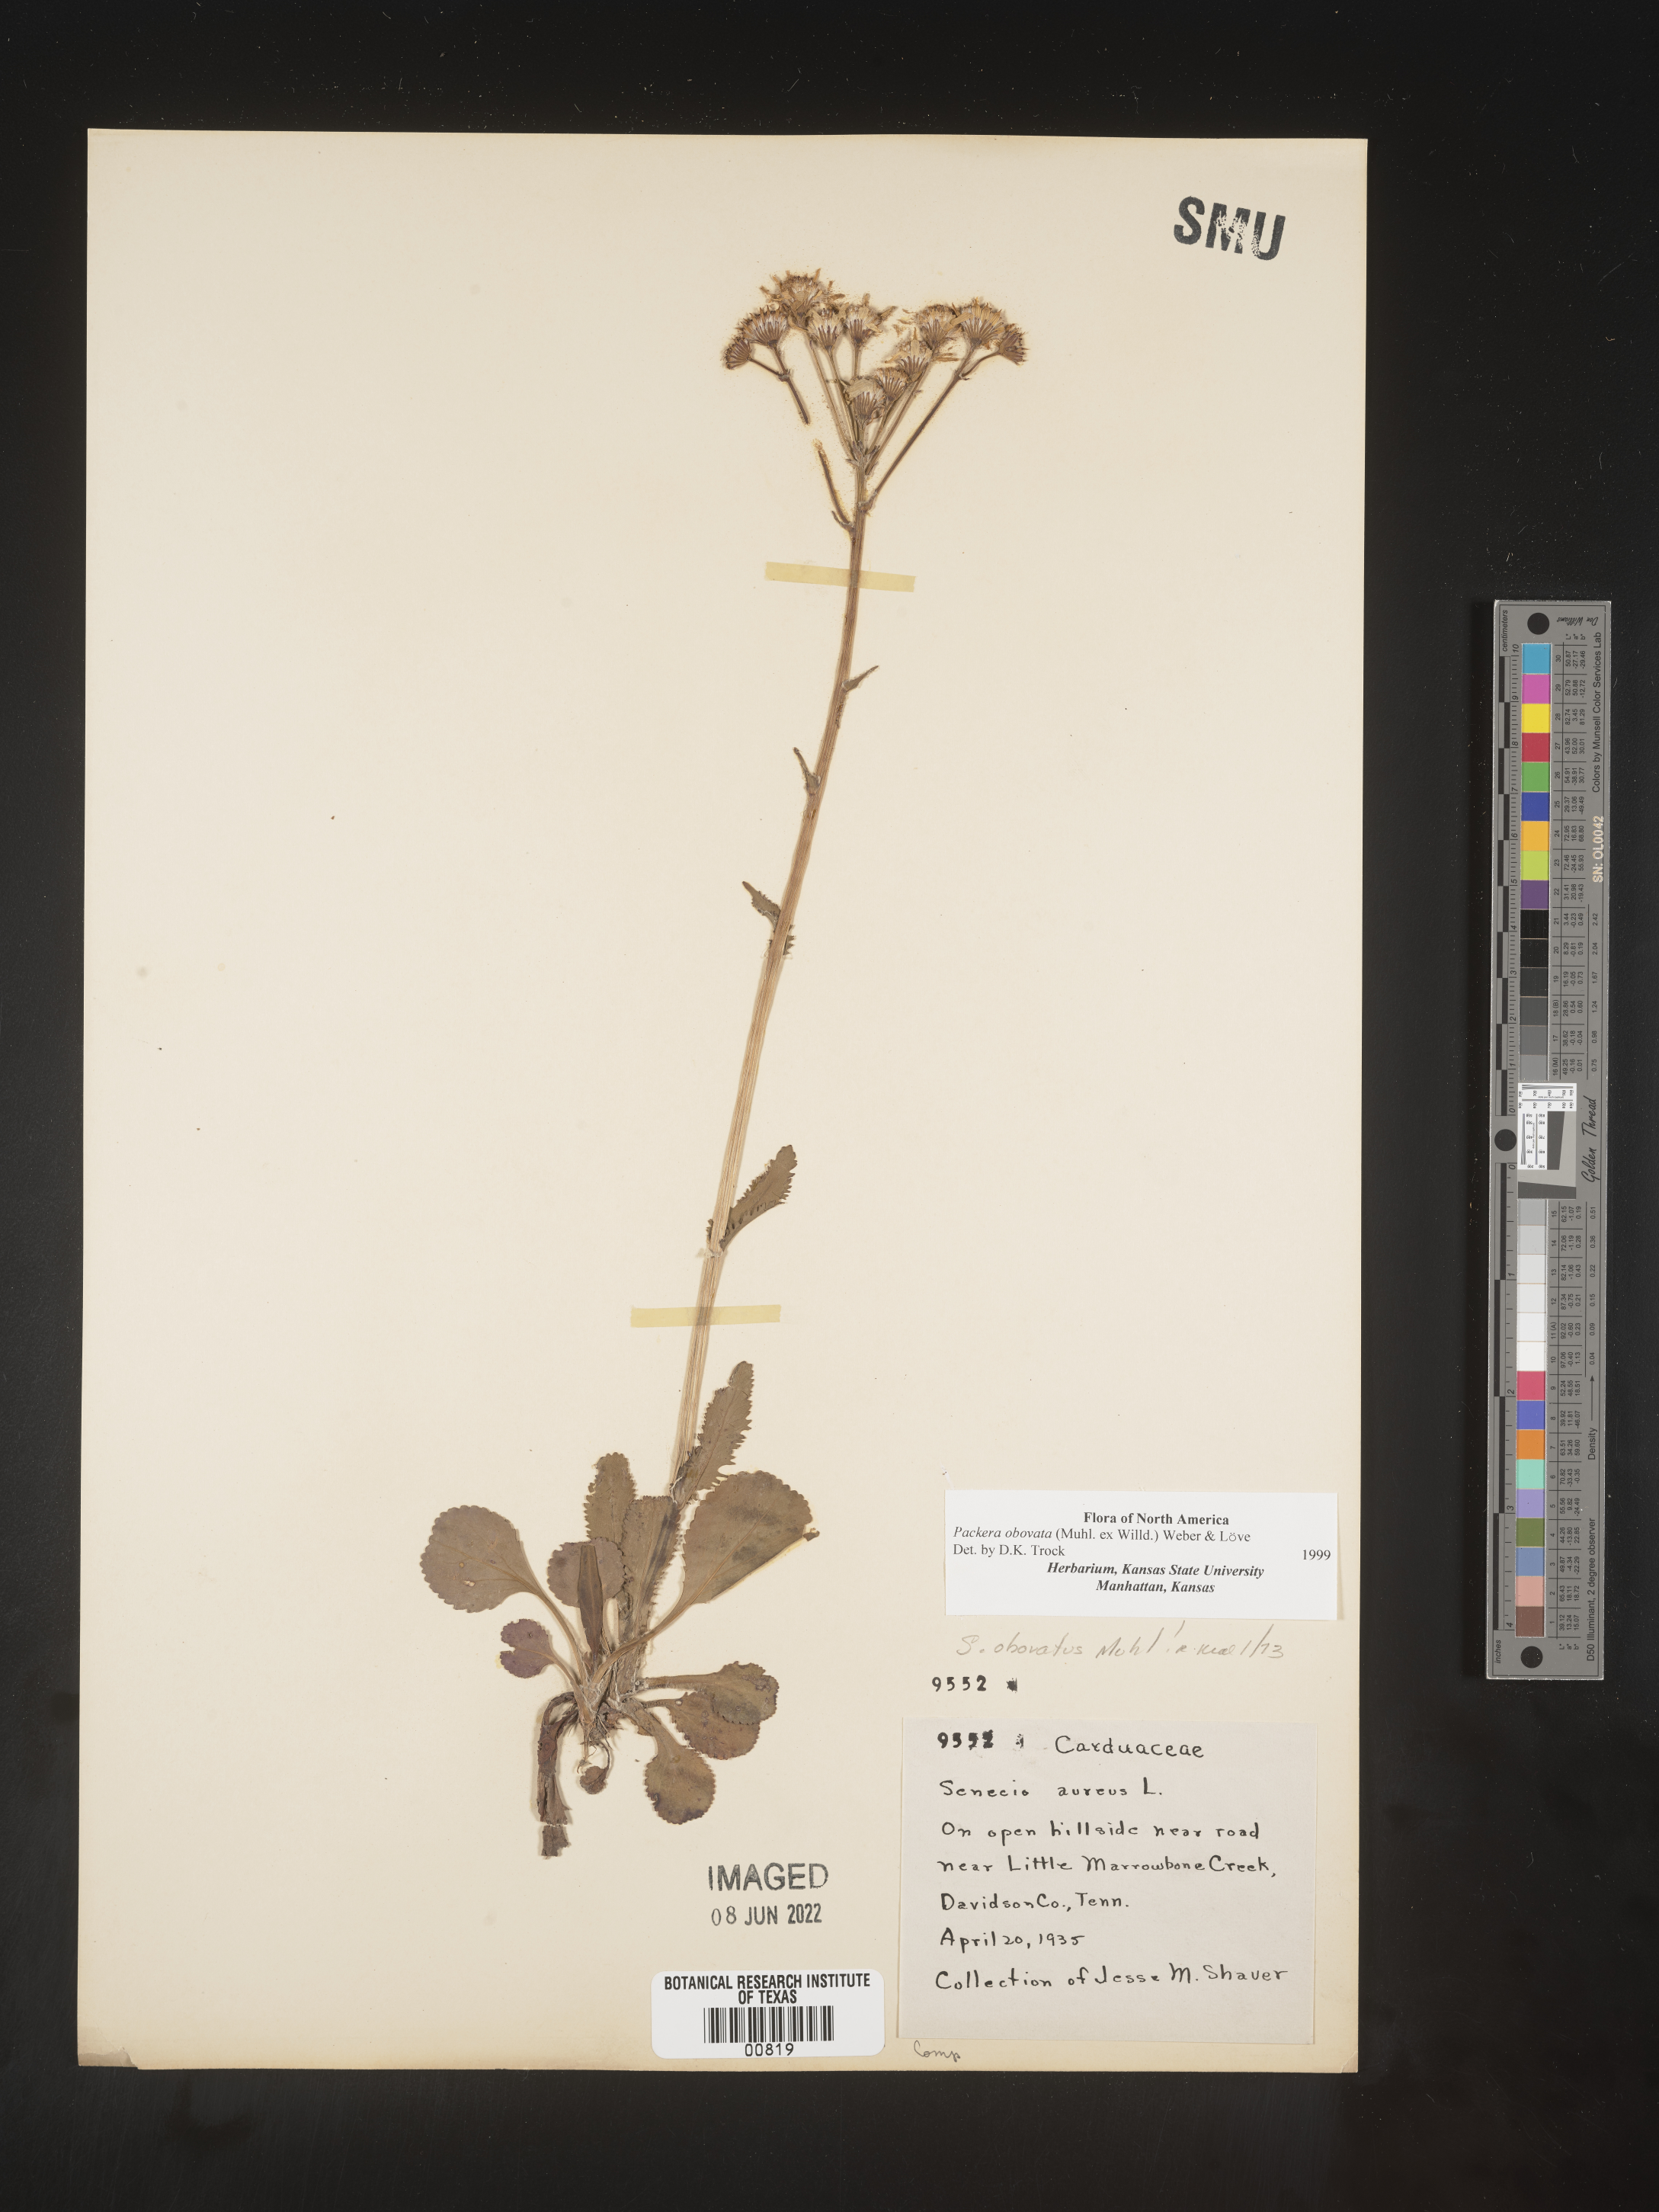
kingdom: Plantae
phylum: Tracheophyta
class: Magnoliopsida
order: Asterales
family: Asteraceae
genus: Packera
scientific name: Packera obovata
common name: Round-leaf ragwort
